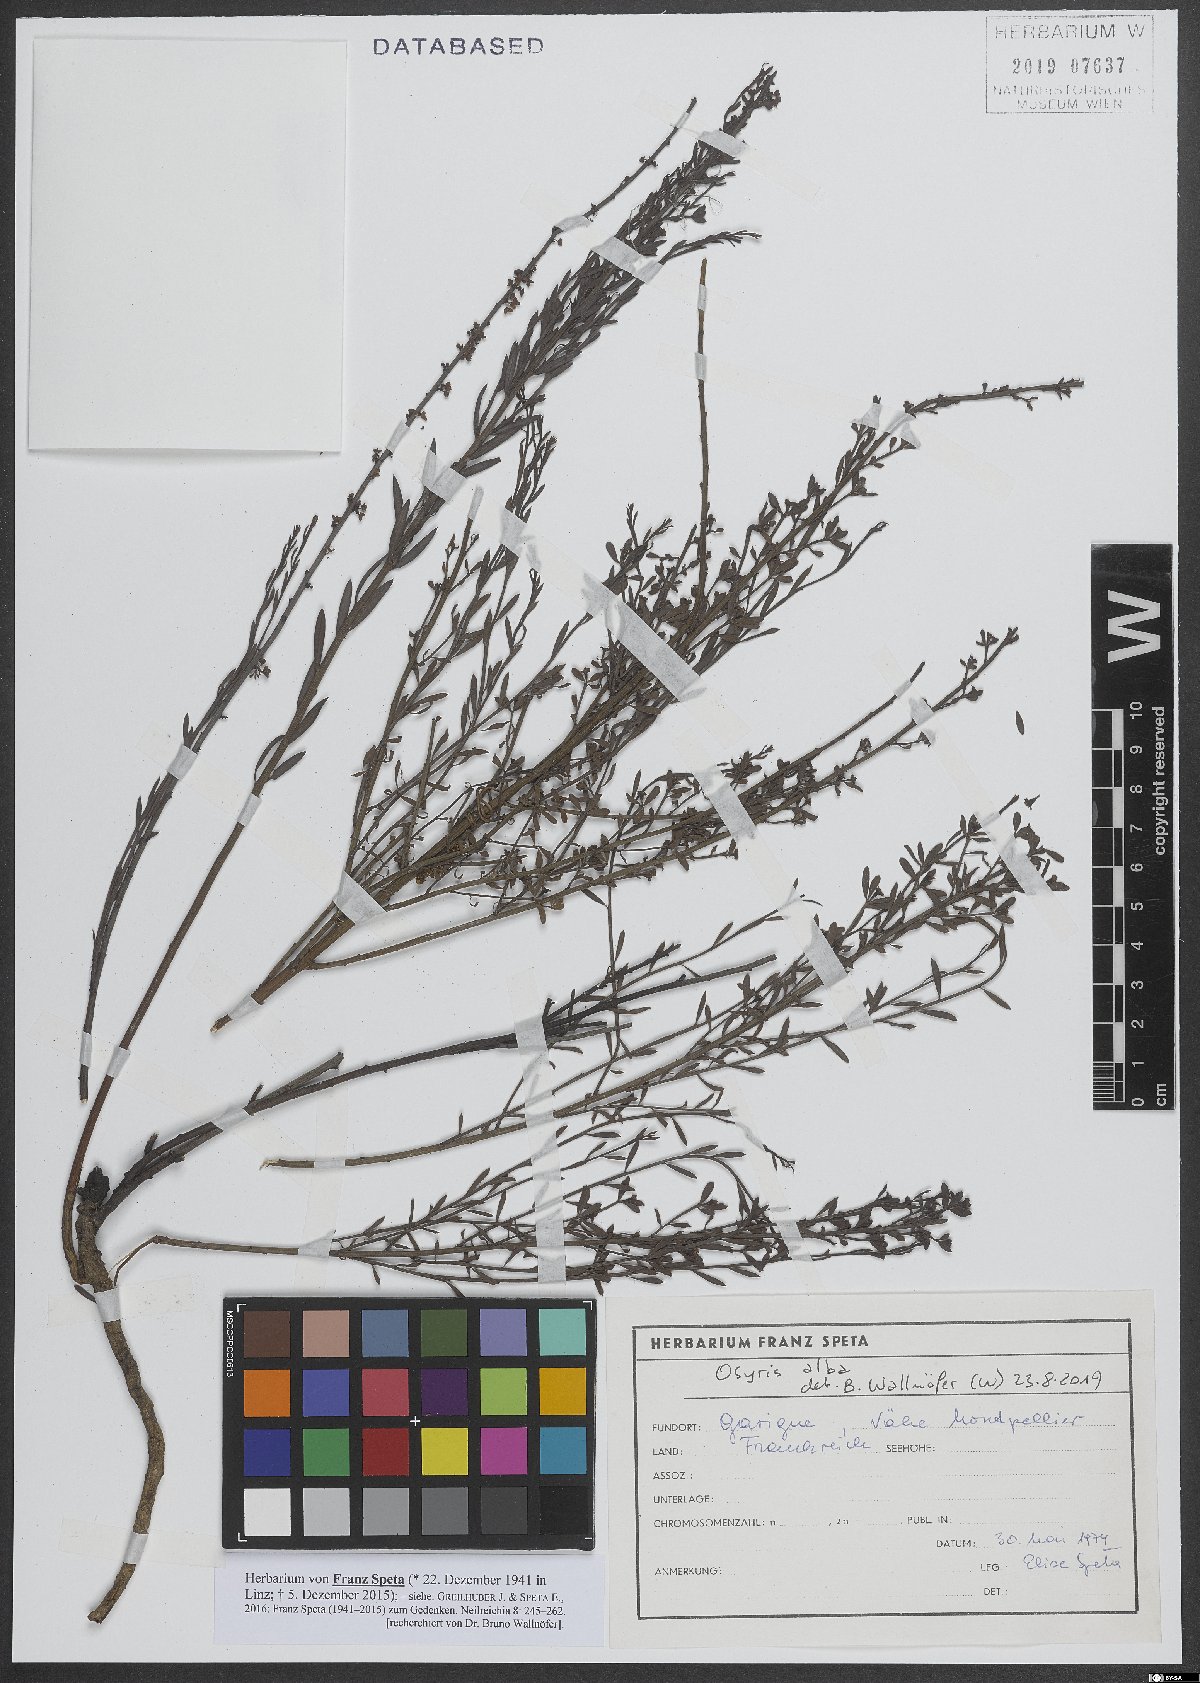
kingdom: Plantae
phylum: Tracheophyta
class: Magnoliopsida
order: Santalales
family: Santalaceae
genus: Osyris
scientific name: Osyris alba
